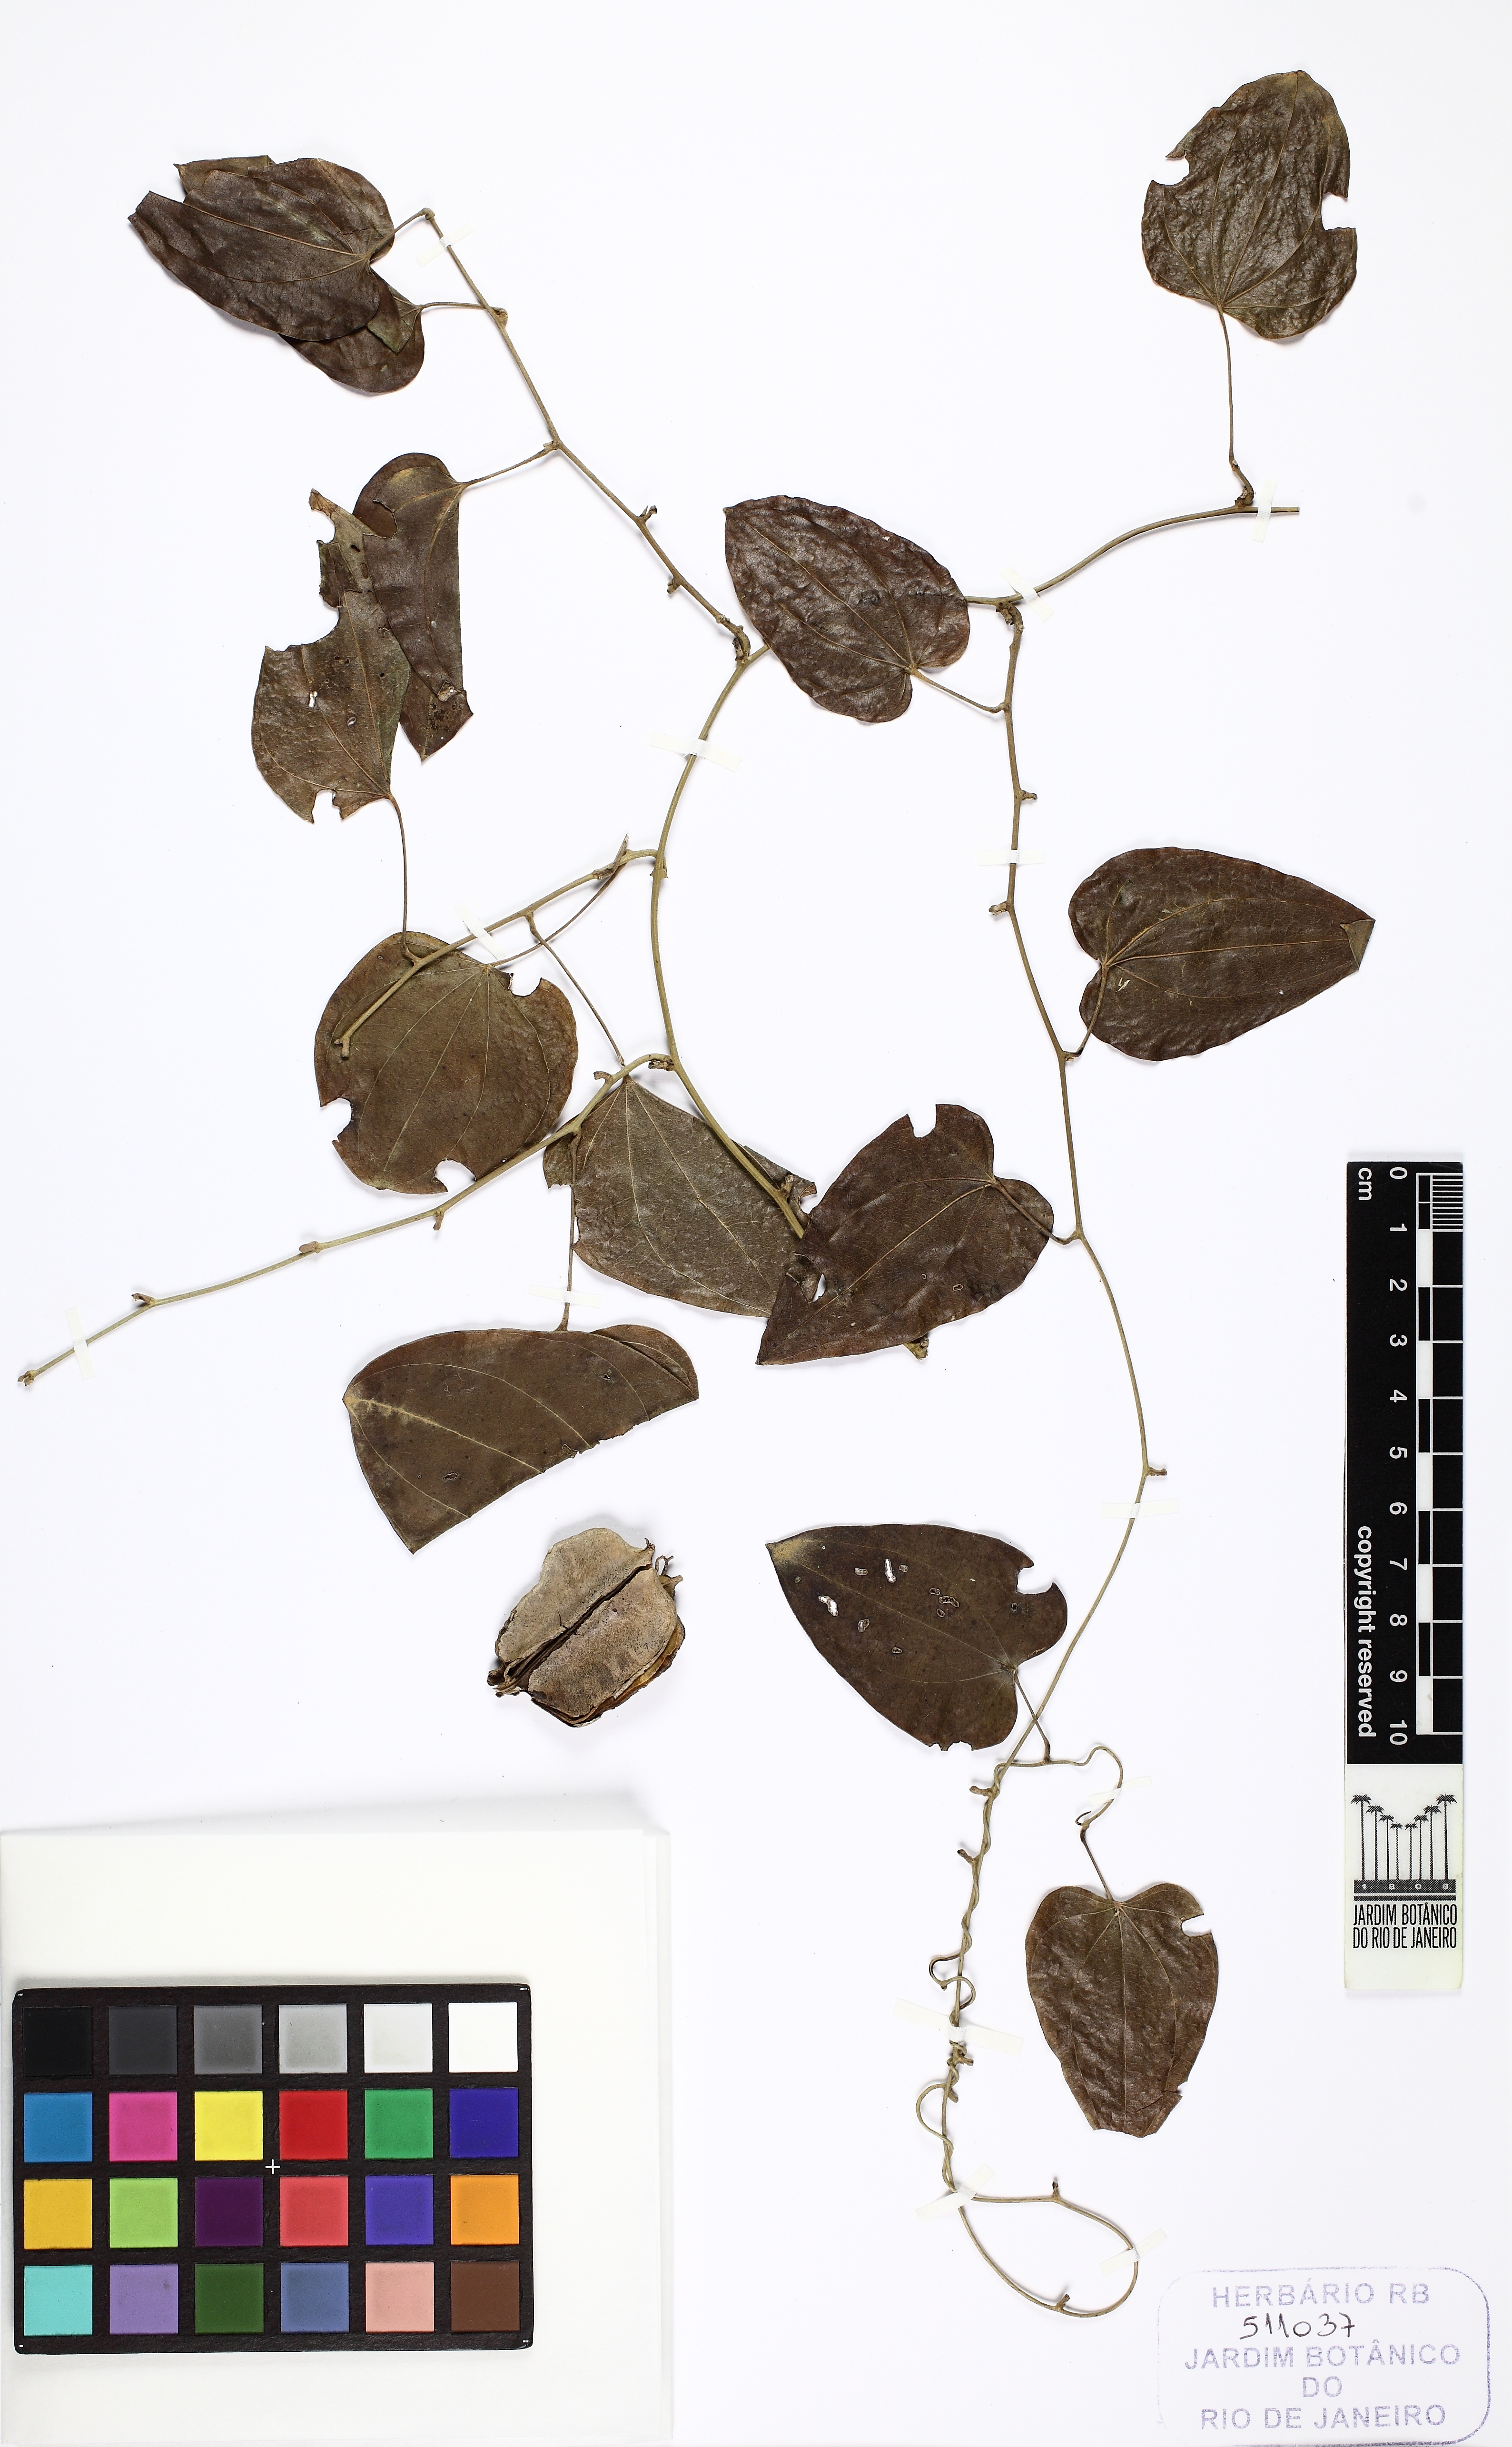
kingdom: Plantae
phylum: Tracheophyta
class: Liliopsida
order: Dioscoreales
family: Dioscoreaceae
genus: Dioscorea
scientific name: Dioscorea flabellispina
